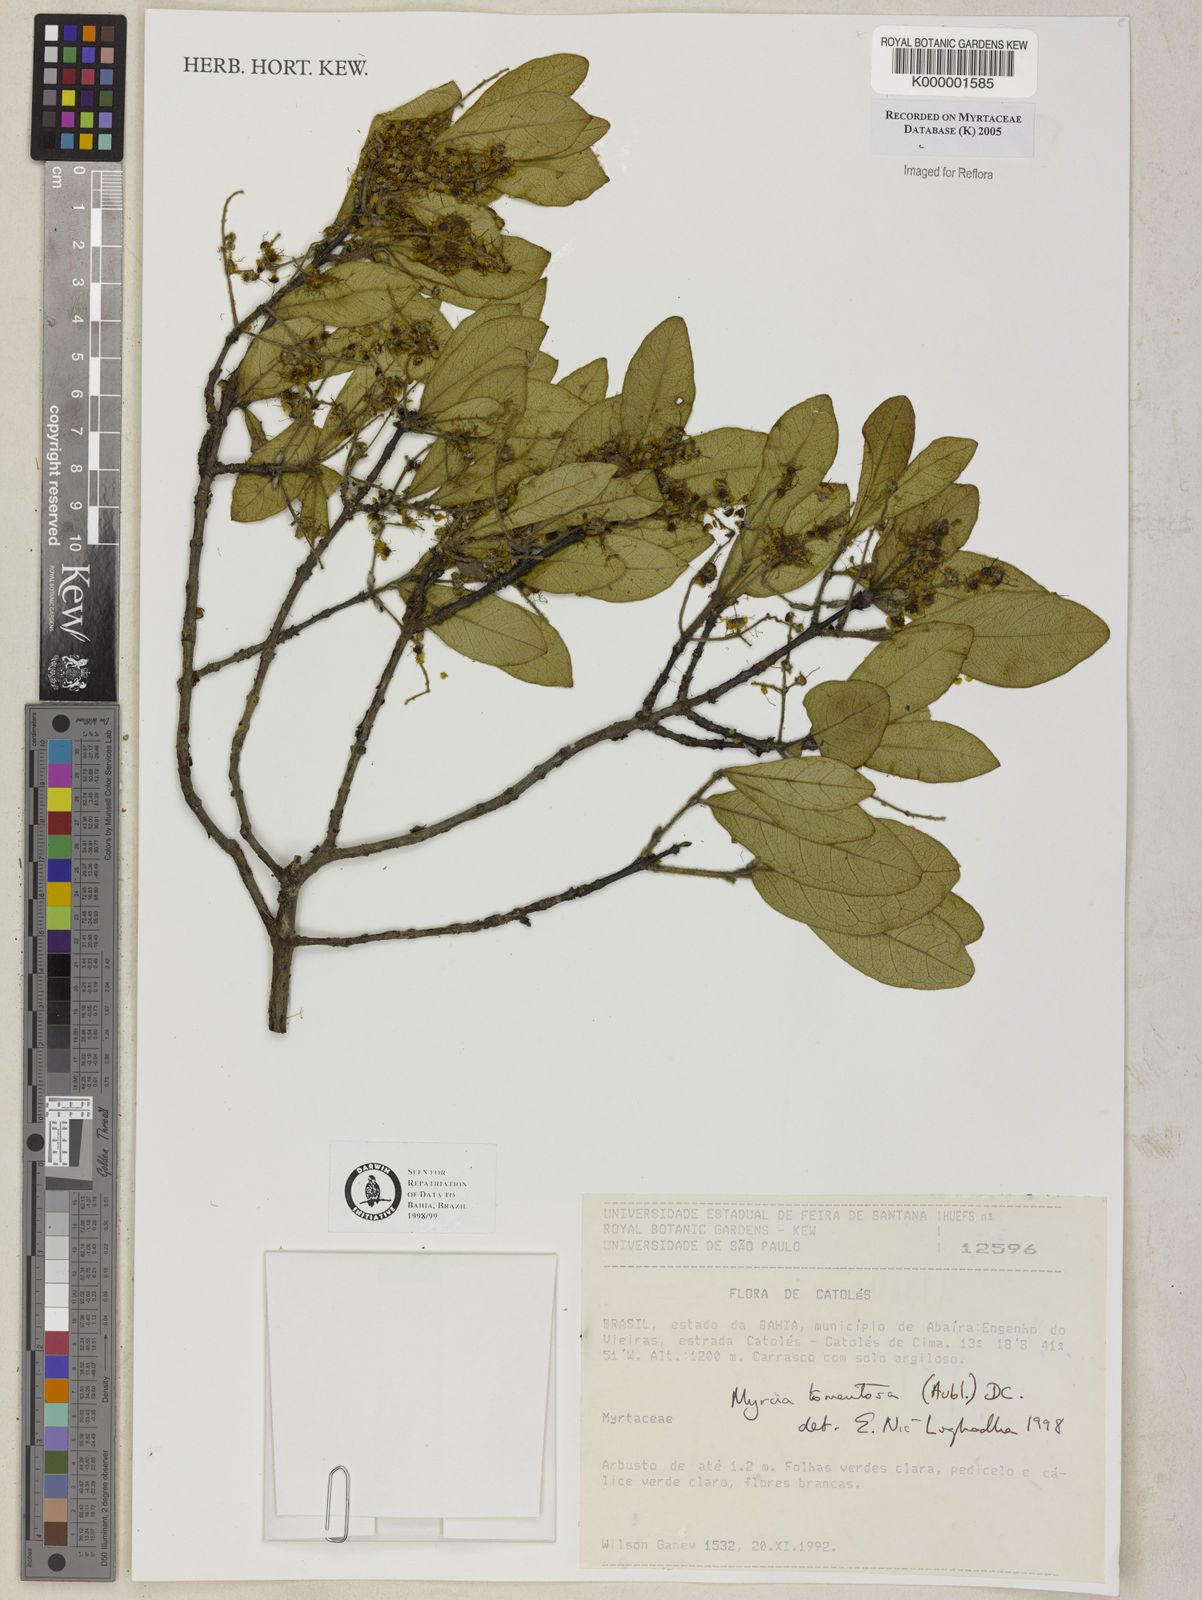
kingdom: Plantae
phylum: Tracheophyta
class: Magnoliopsida
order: Myrtales
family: Myrtaceae
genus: Myrcia
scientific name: Myrcia tomentosa
